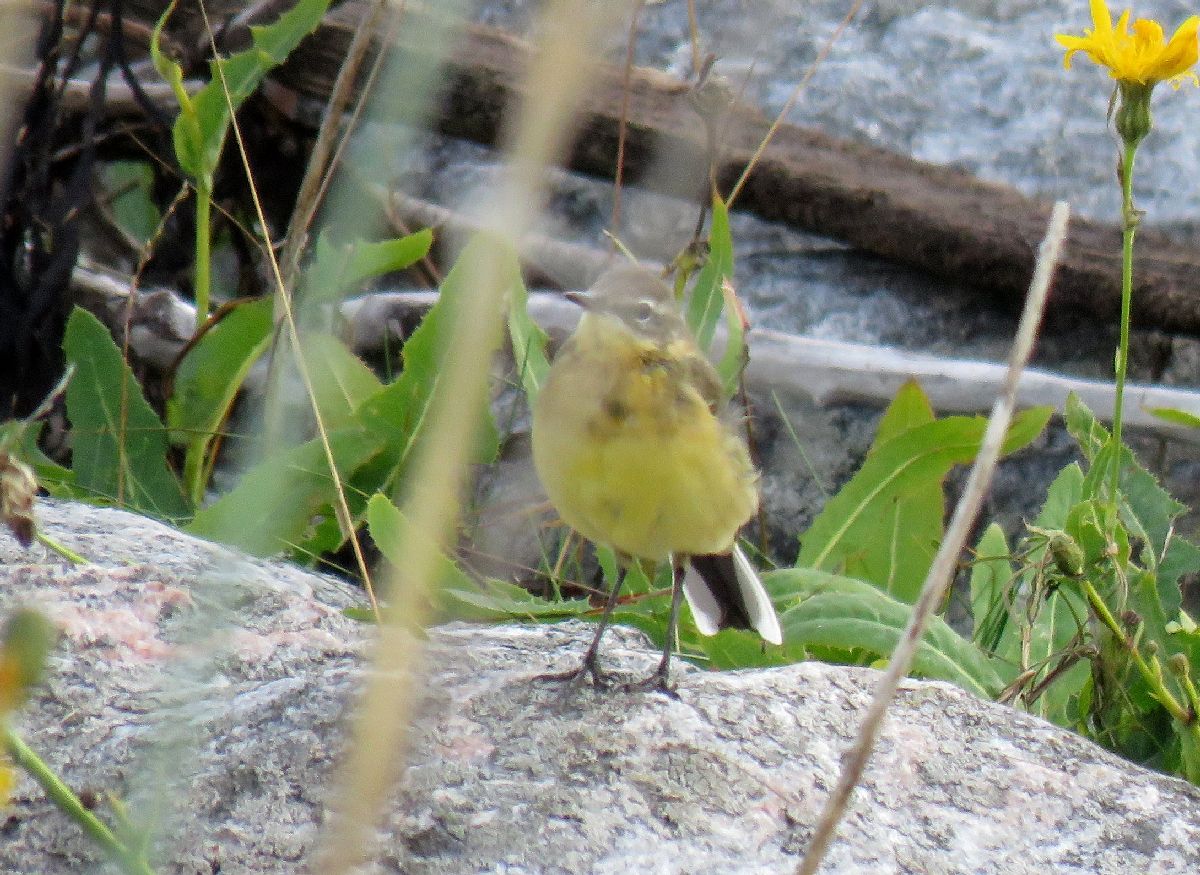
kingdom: Animalia
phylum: Chordata
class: Aves
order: Passeriformes
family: Motacillidae
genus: Motacilla
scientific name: Motacilla flava
